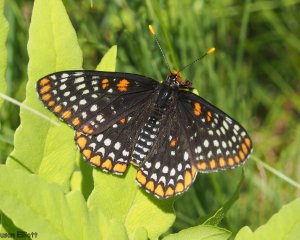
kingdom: Animalia
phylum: Arthropoda
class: Insecta
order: Lepidoptera
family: Nymphalidae
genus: Euphydryas
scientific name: Euphydryas phaeton
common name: Baltimore Checkerspot
